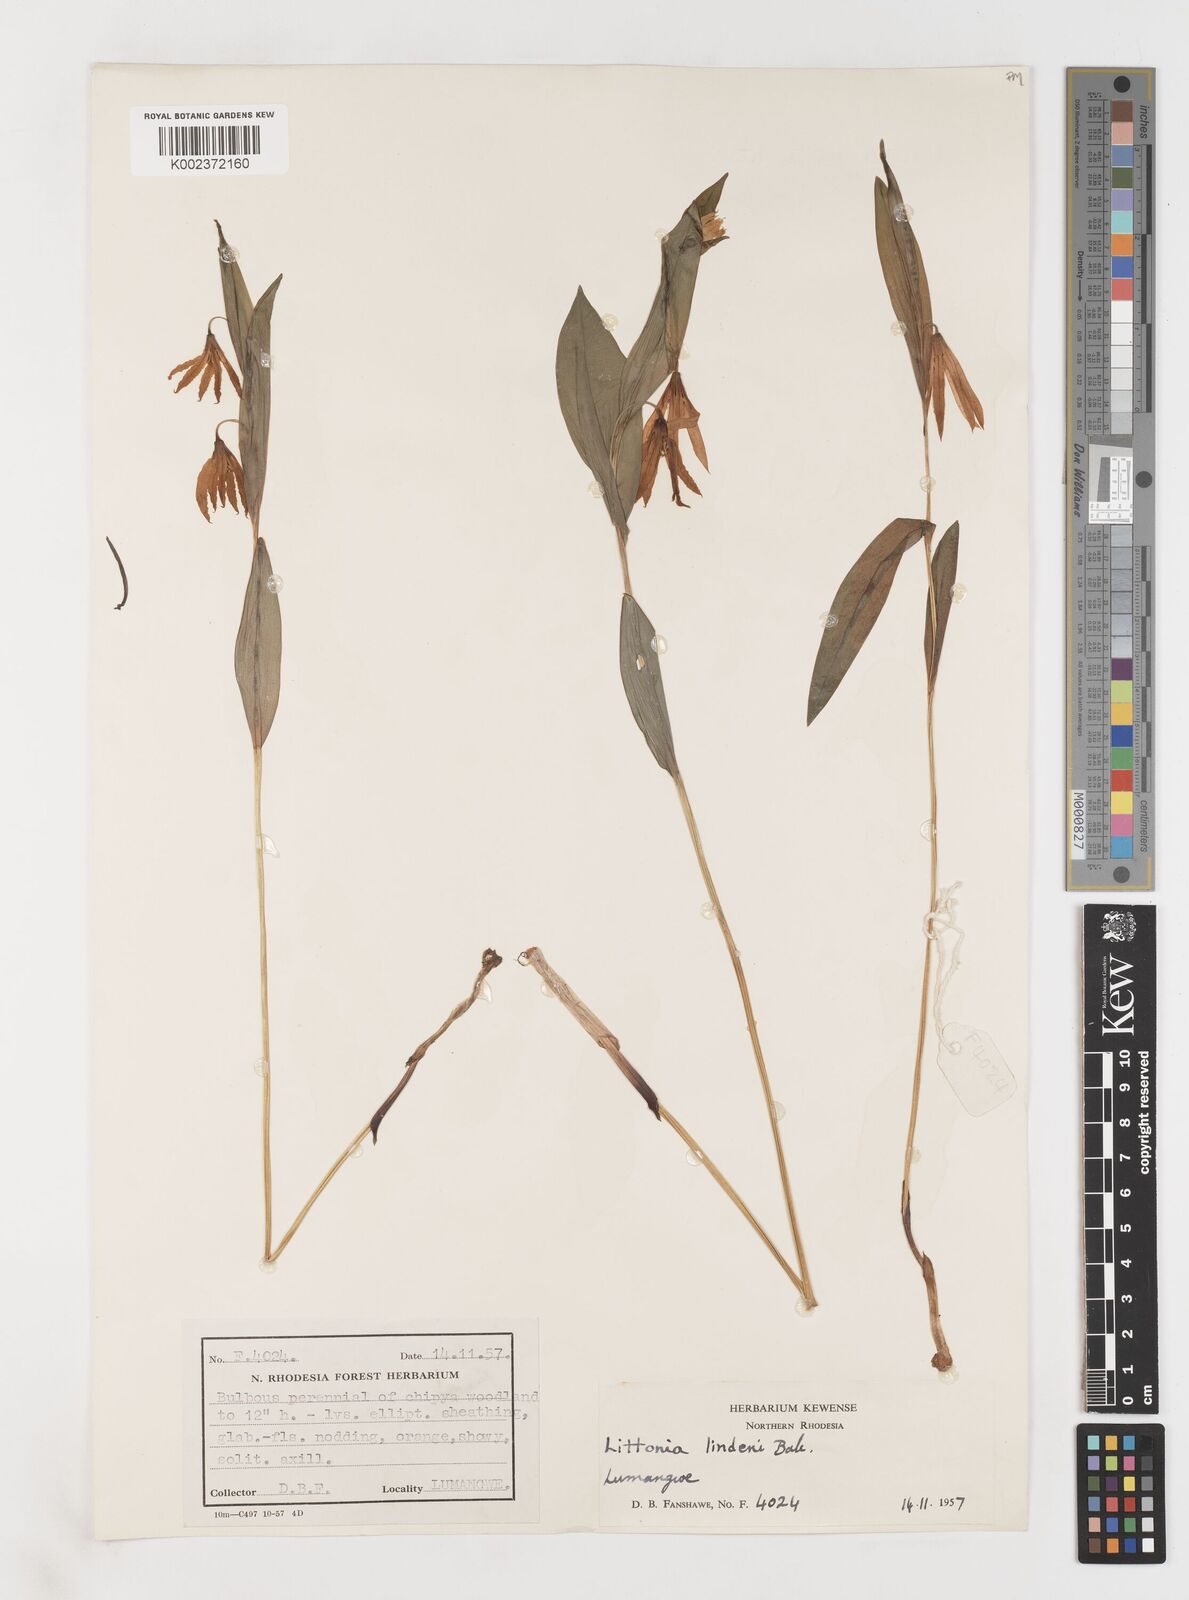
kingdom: Plantae
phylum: Tracheophyta
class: Liliopsida
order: Liliales
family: Colchicaceae
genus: Gloriosa
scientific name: Gloriosa lindenii
